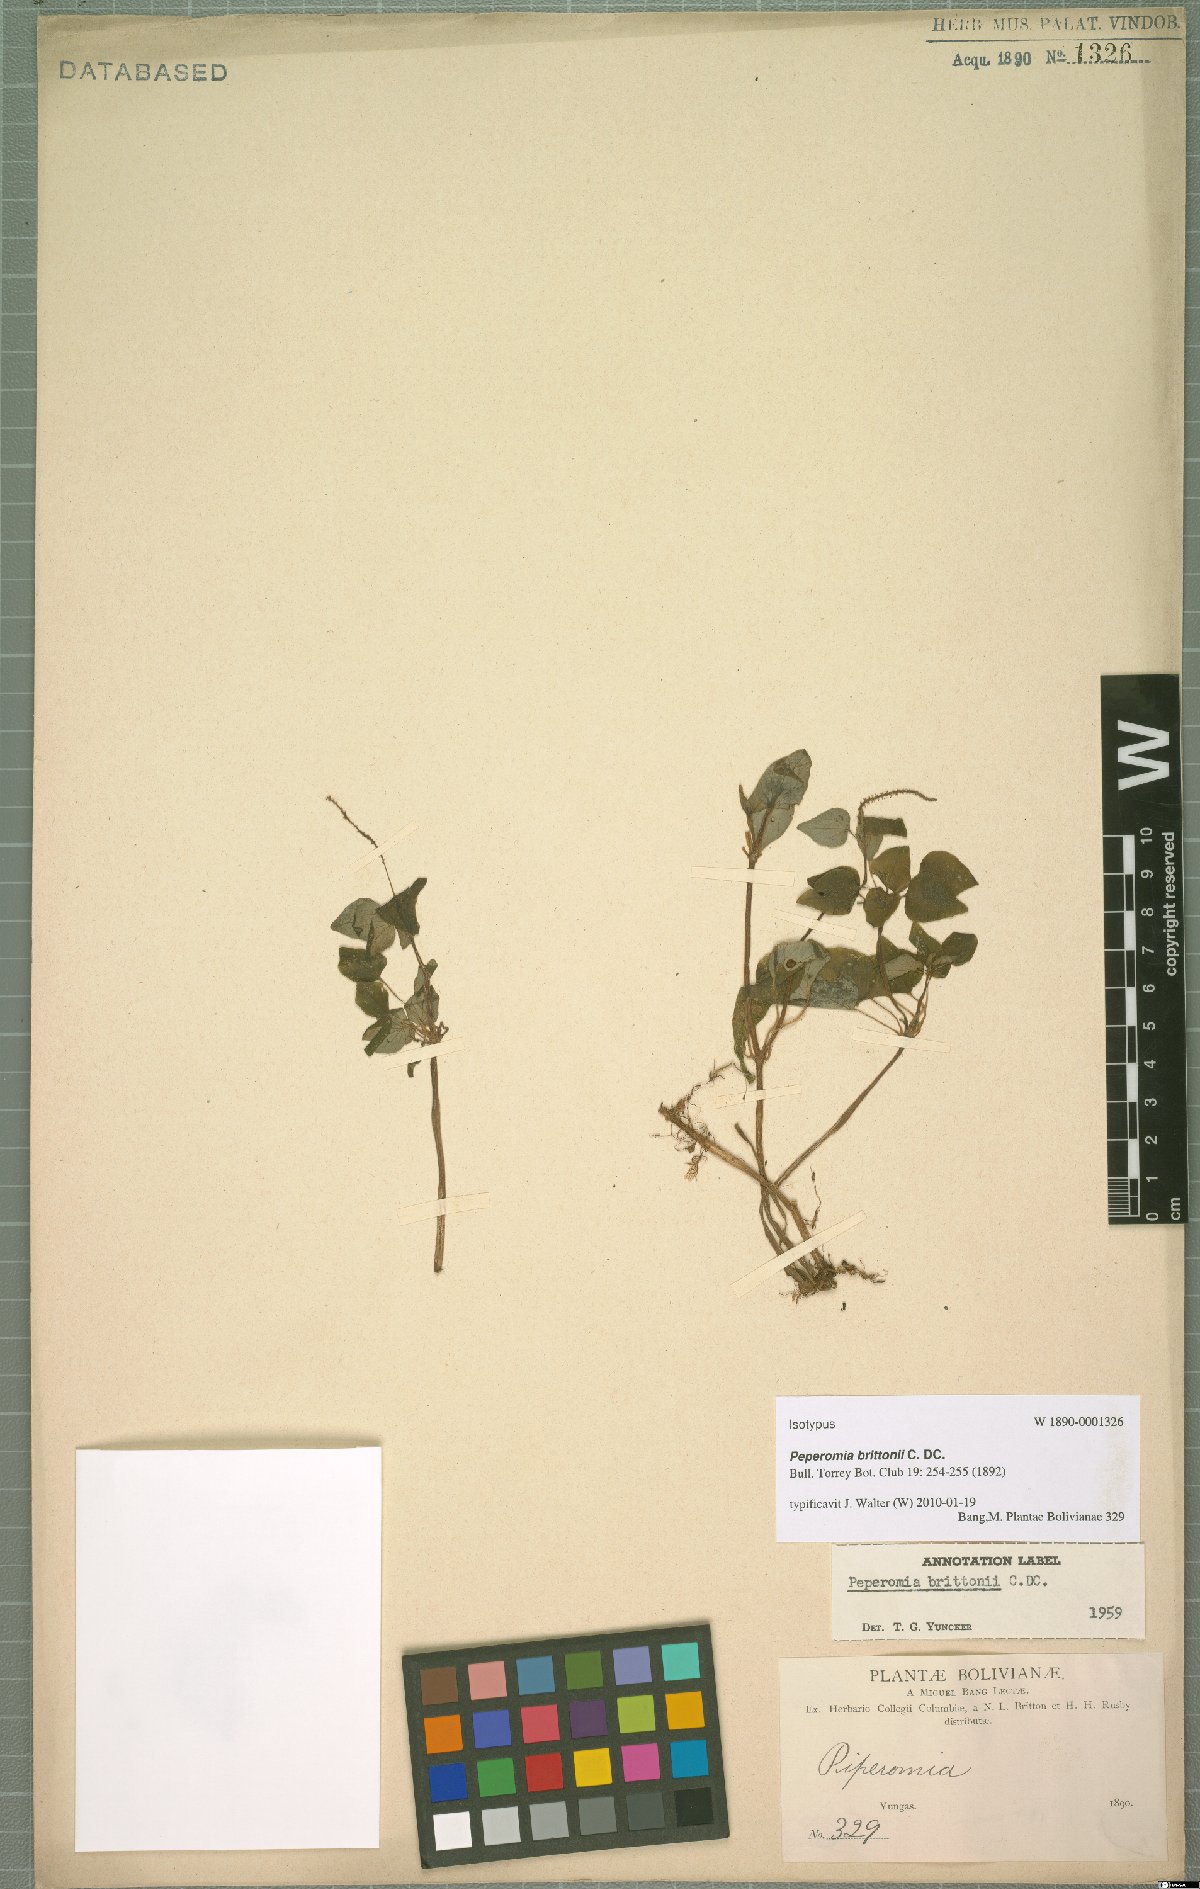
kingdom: Plantae
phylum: Tracheophyta
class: Magnoliopsida
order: Piperales
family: Piperaceae
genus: Peperomia
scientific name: Peperomia brittonii
